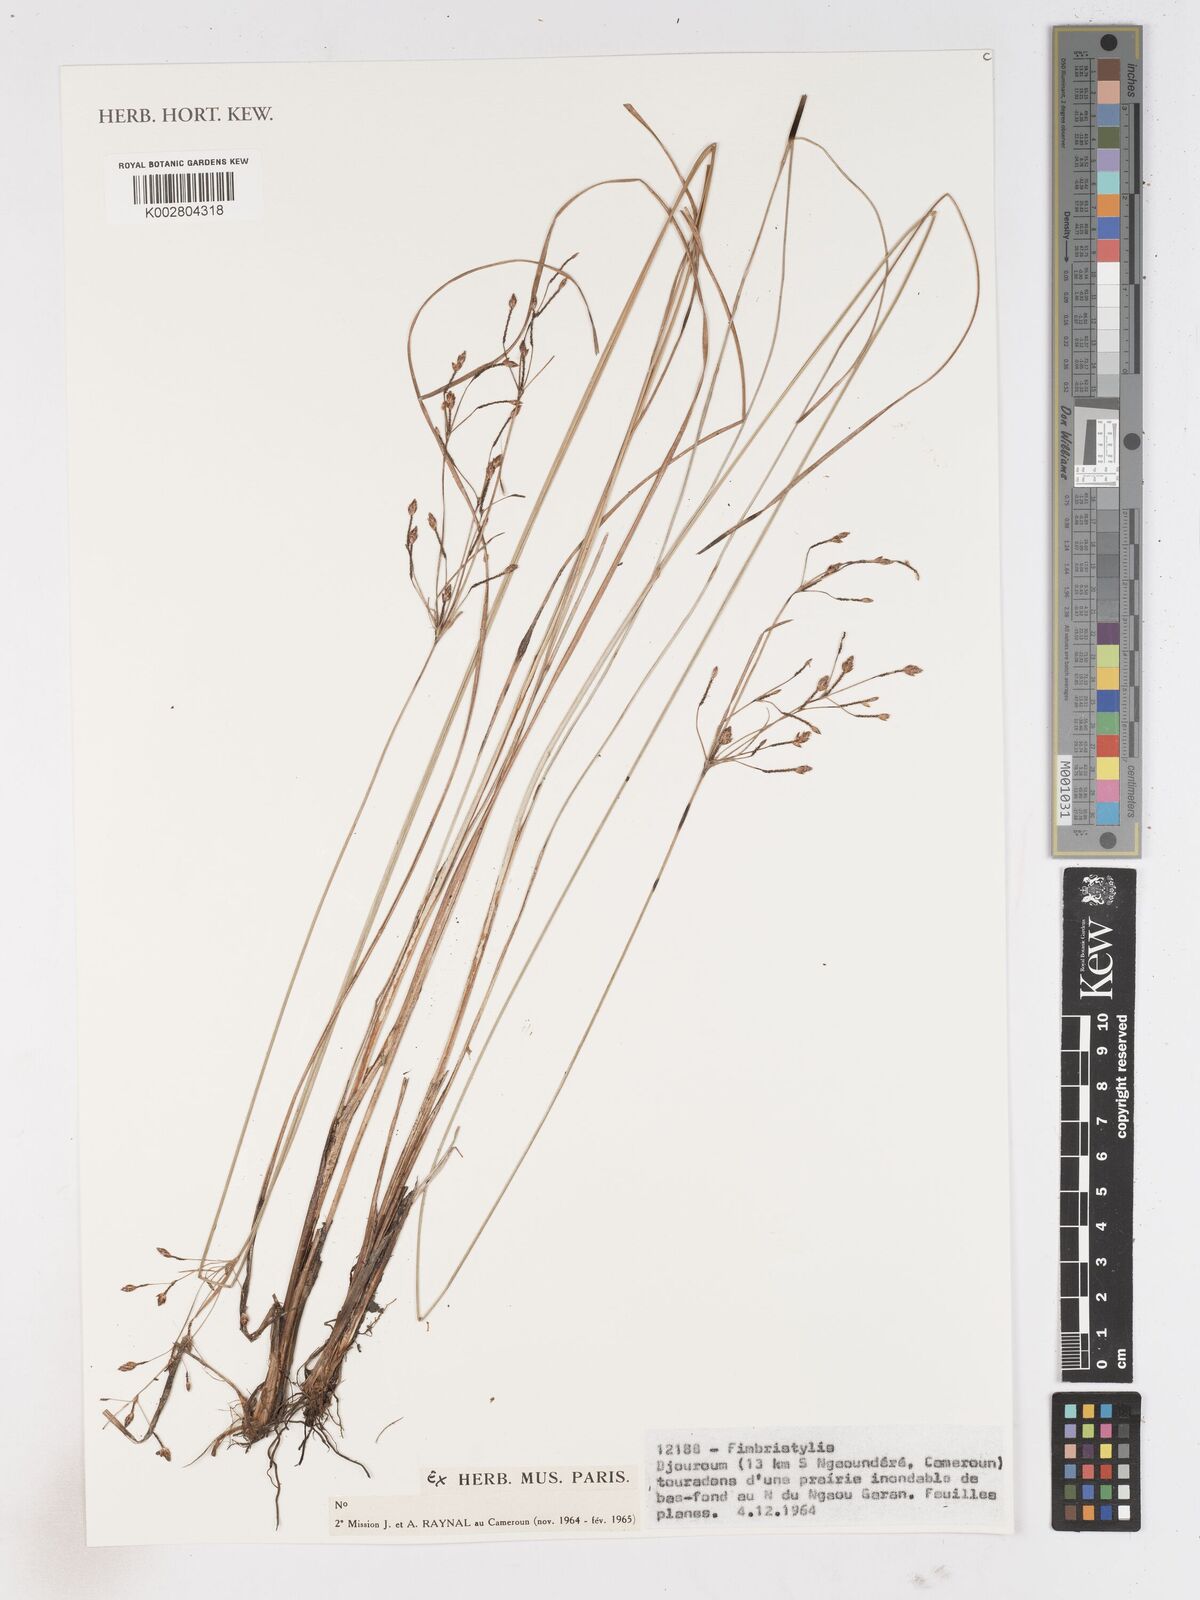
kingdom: Plantae
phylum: Tracheophyta
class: Liliopsida
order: Poales
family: Cyperaceae
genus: Fimbristylis
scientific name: Fimbristylis
